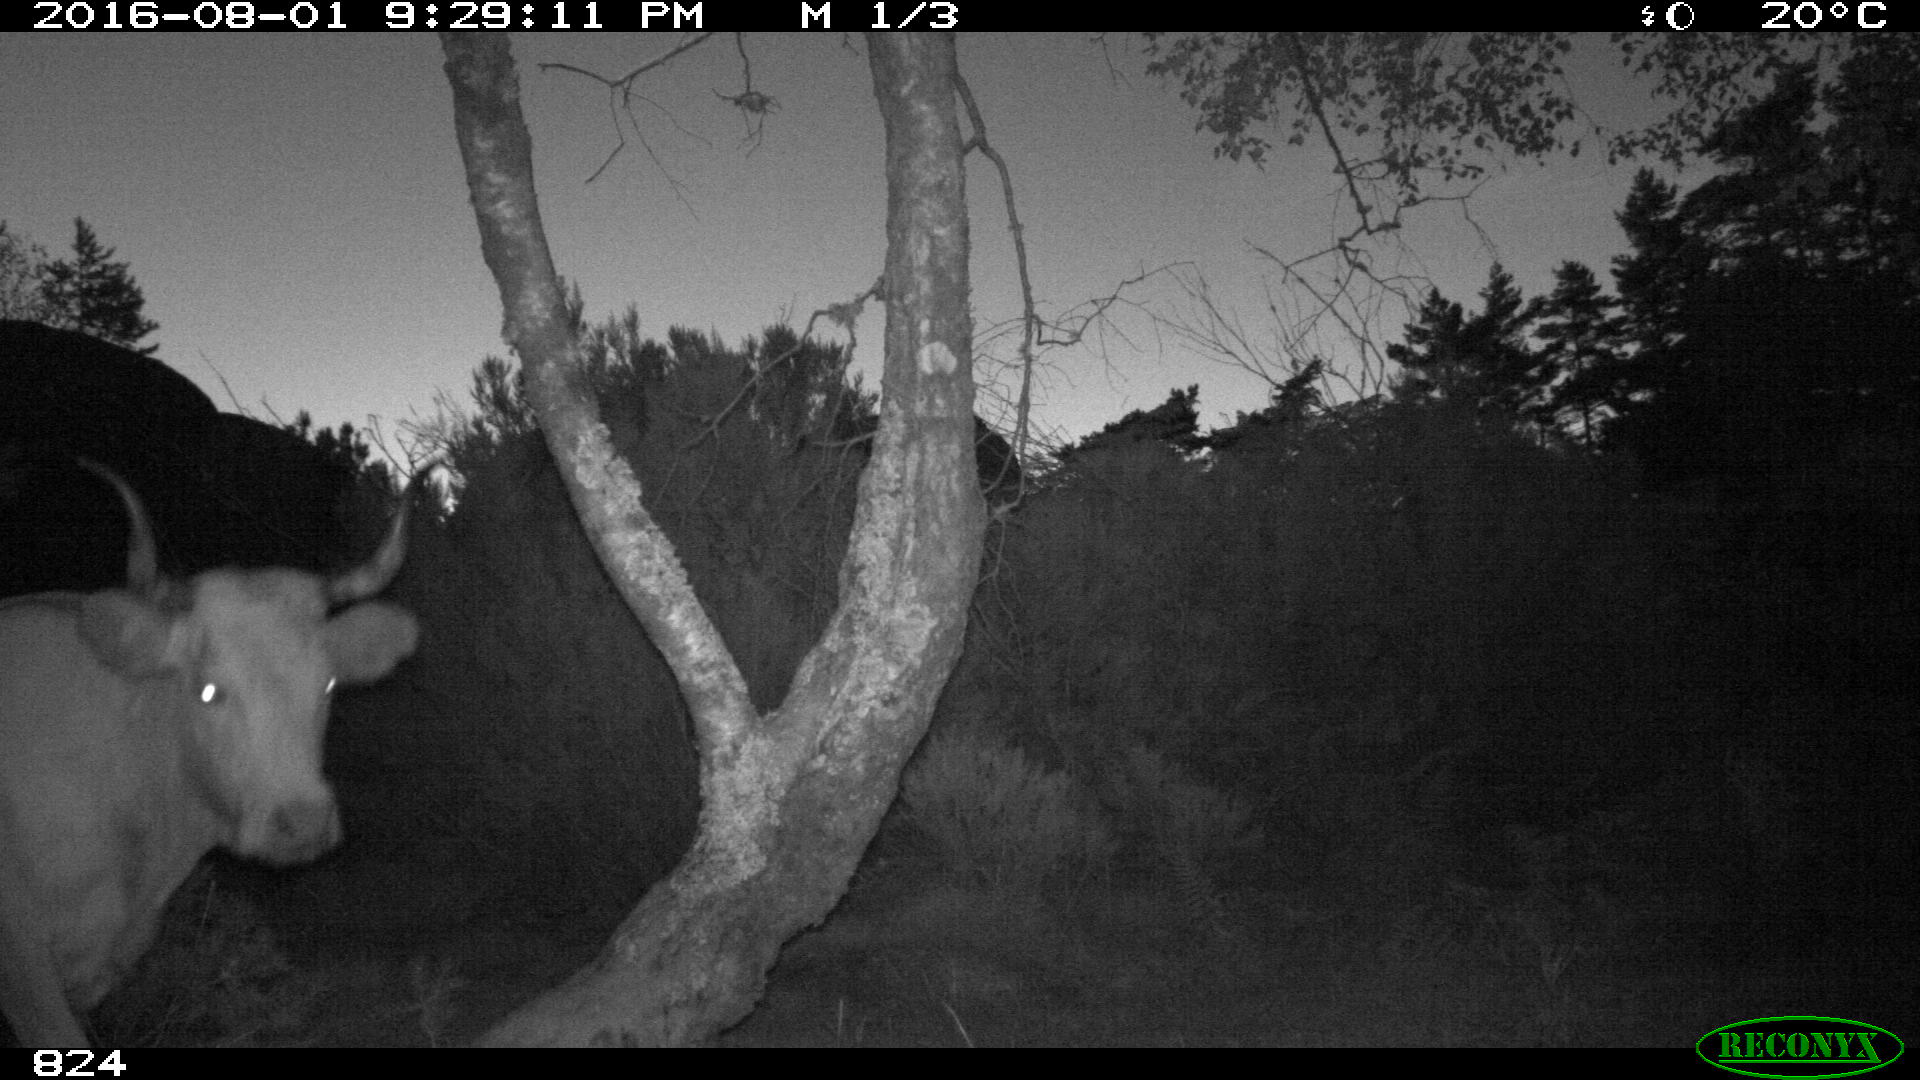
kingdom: Animalia
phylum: Chordata
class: Mammalia
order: Artiodactyla
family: Bovidae
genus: Bos
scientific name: Bos taurus
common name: Domesticated cattle
